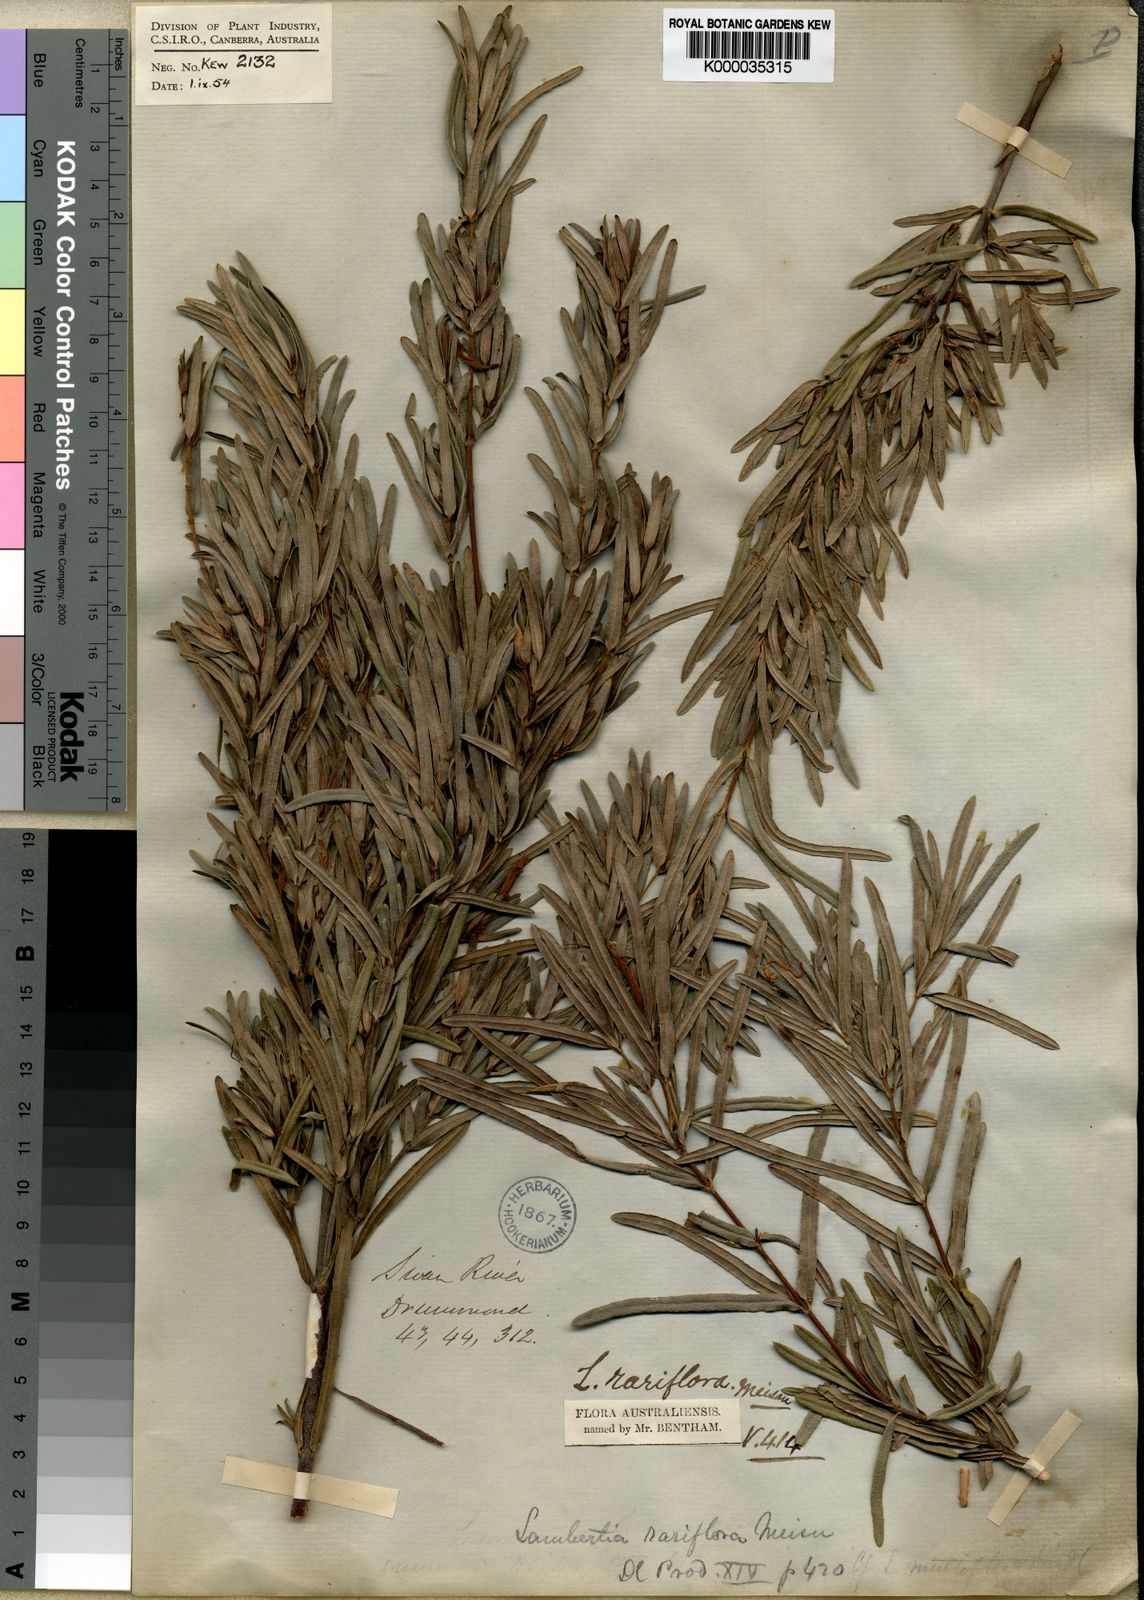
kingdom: Plantae
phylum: Tracheophyta
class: Magnoliopsida
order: Proteales
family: Proteaceae
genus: Lambertia
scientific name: Lambertia rariflora
